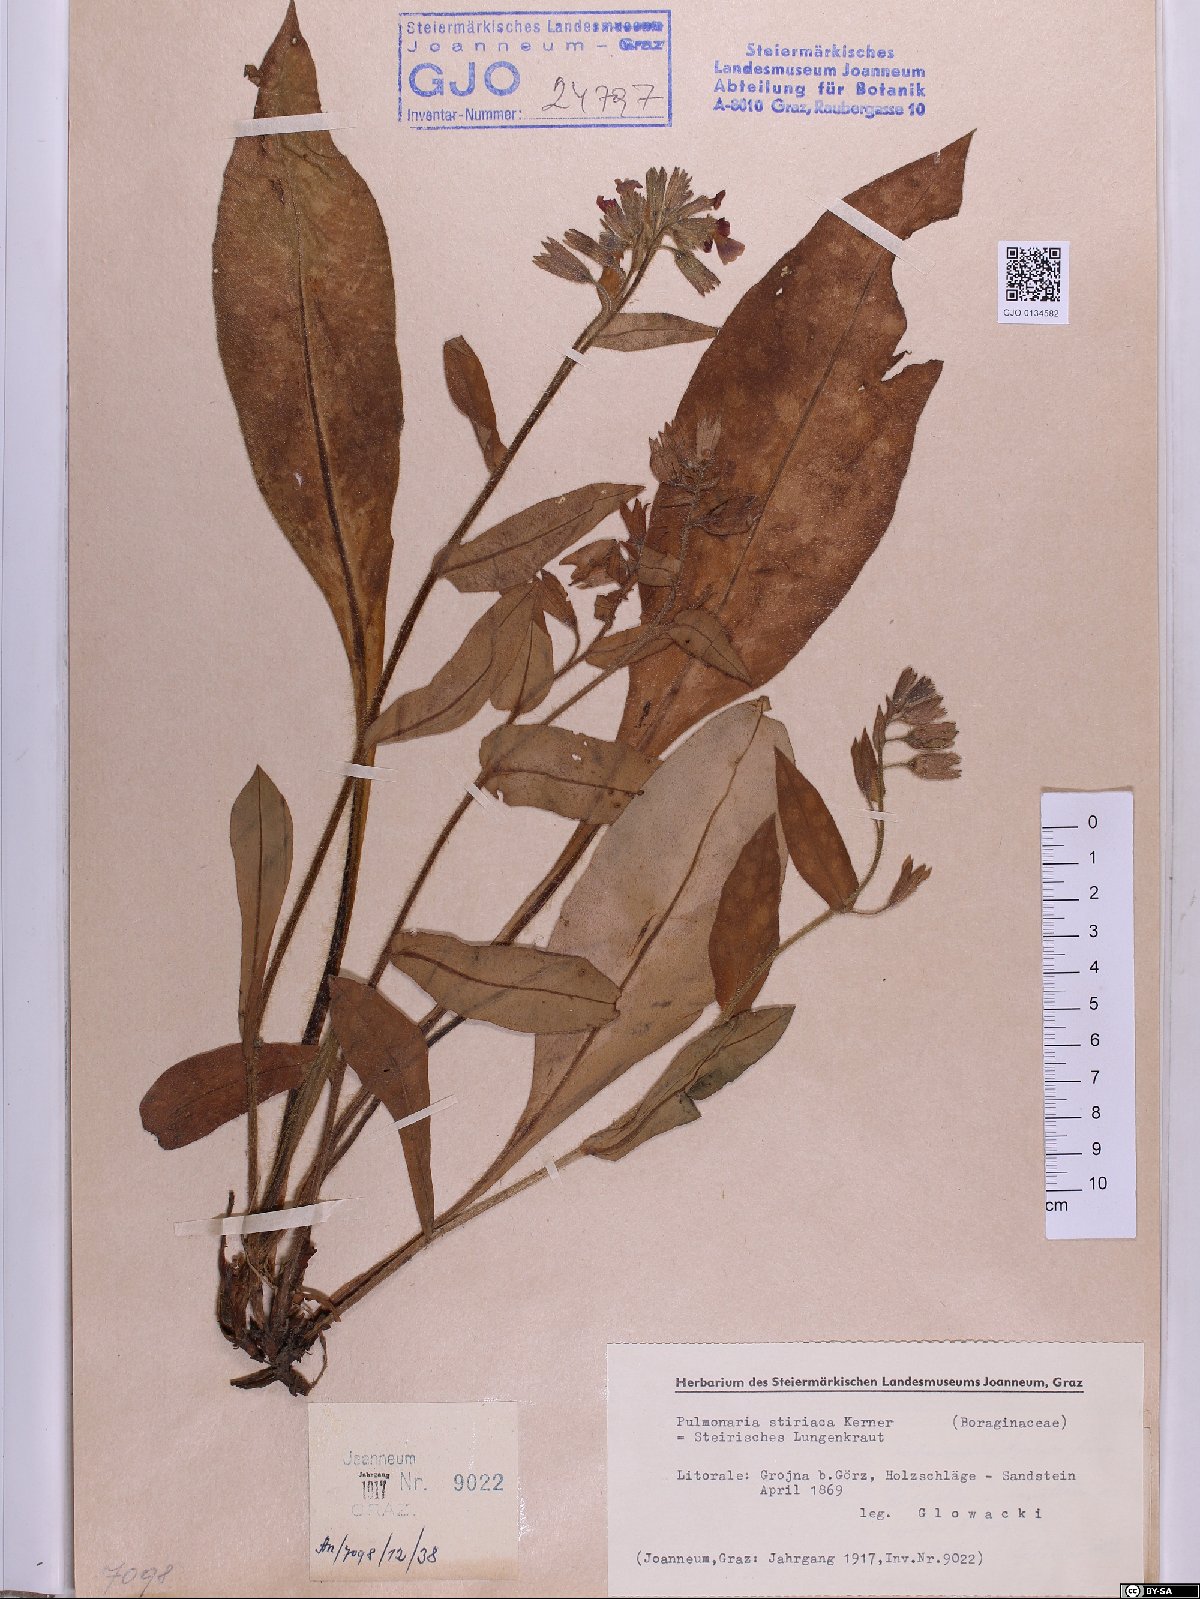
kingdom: Plantae
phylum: Tracheophyta
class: Magnoliopsida
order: Boraginales
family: Boraginaceae
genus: Pulmonaria
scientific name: Pulmonaria stiriaca
